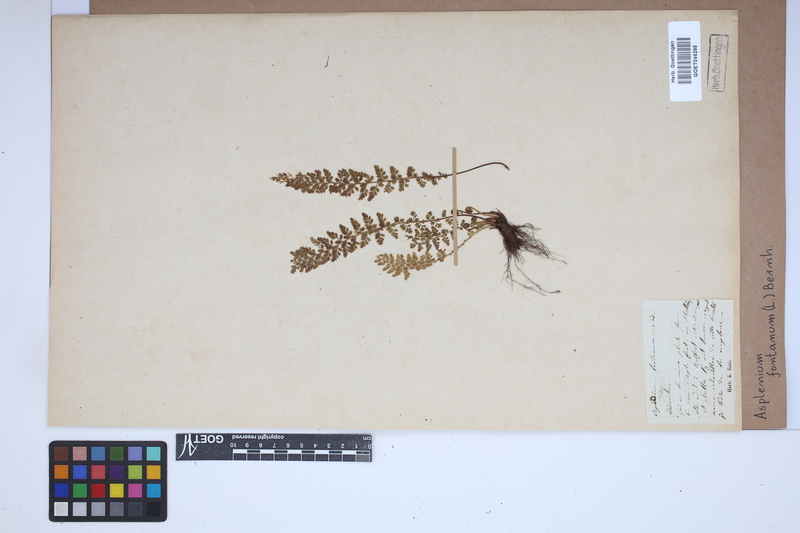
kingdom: Plantae
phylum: Tracheophyta
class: Polypodiopsida
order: Polypodiales
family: Aspleniaceae
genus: Asplenium
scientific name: Asplenium fontanum
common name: Fountain spleenwort
